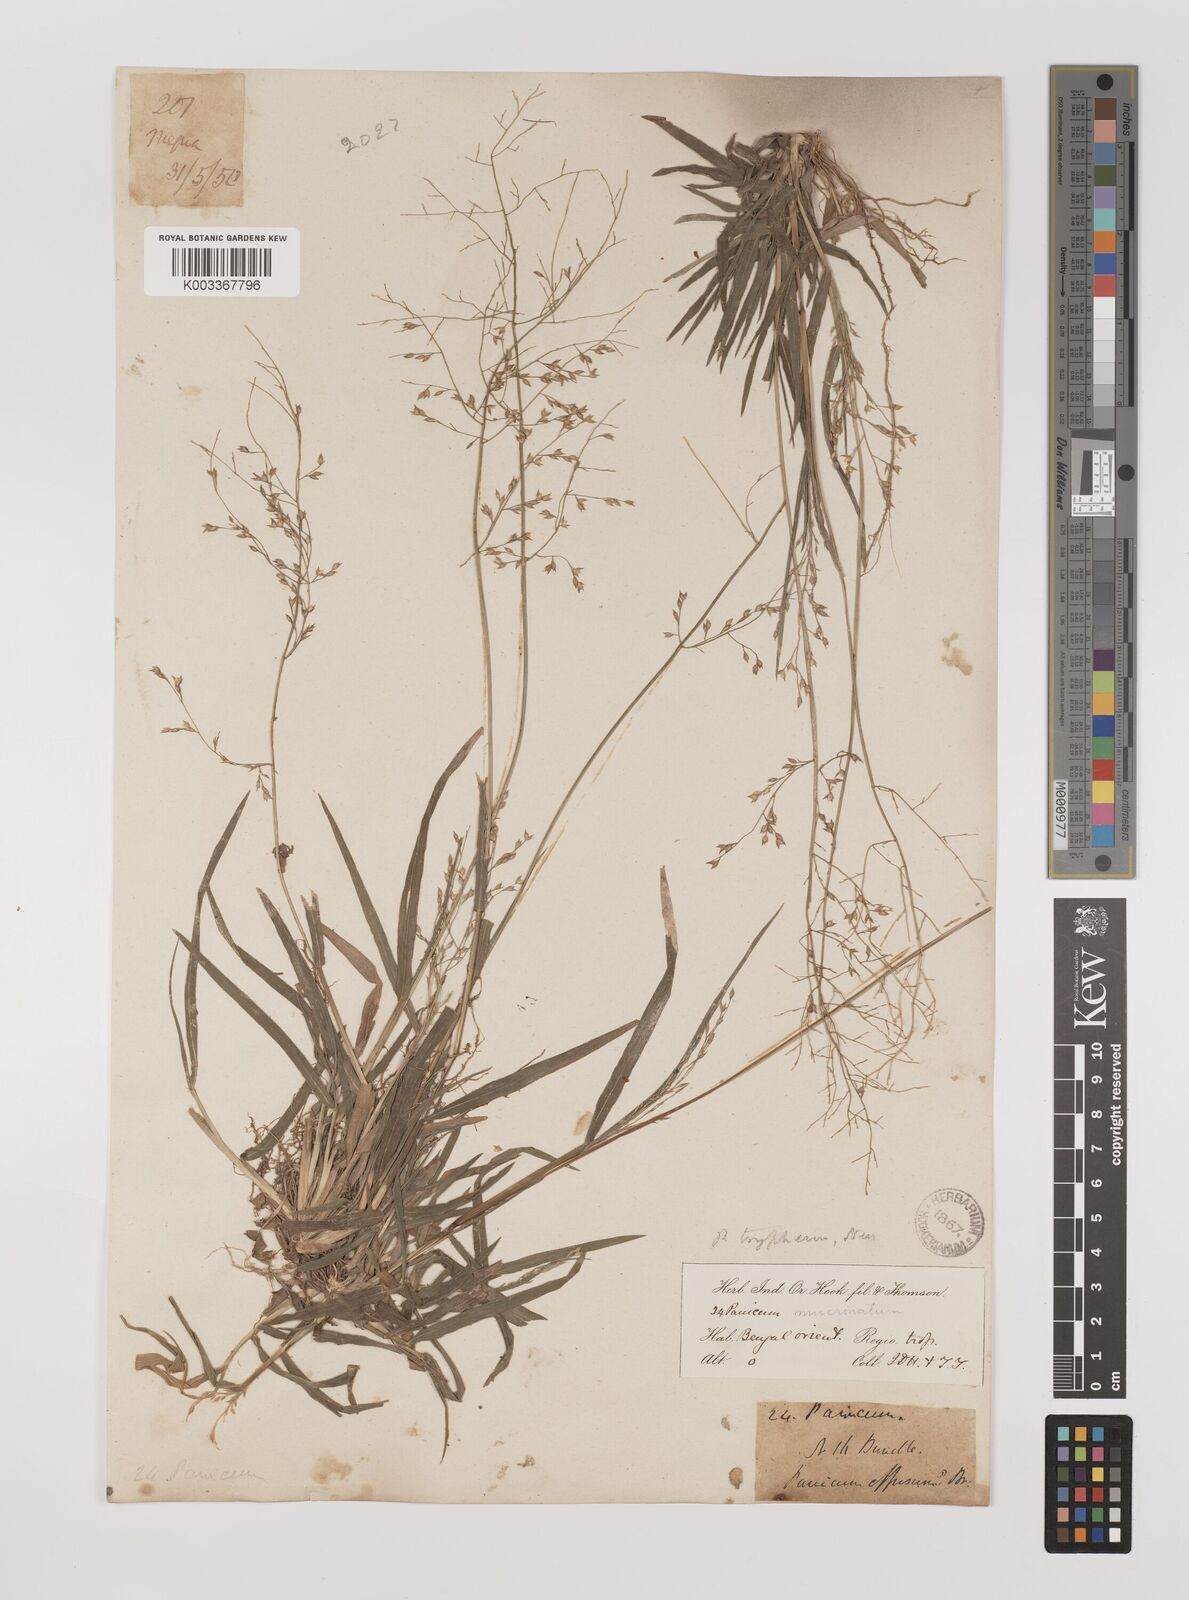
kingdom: Plantae
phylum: Tracheophyta
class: Liliopsida
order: Poales
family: Poaceae
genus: Panicum
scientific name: Panicum curviflorum
